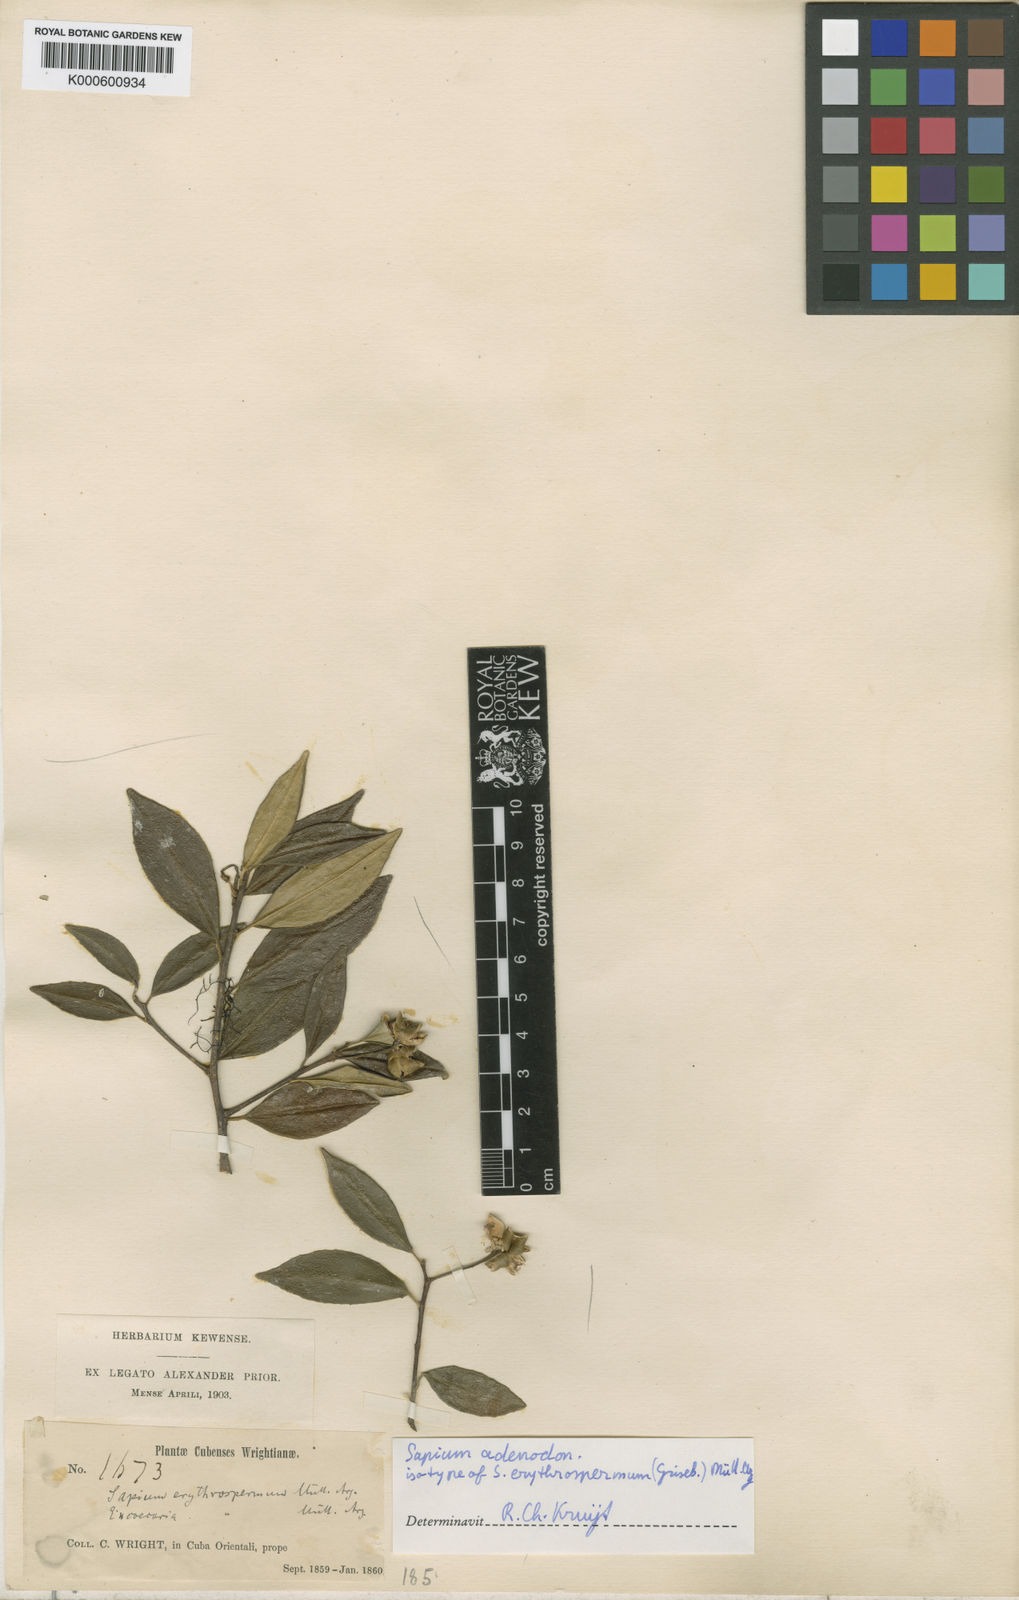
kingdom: Plantae
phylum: Tracheophyta
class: Magnoliopsida
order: Malpighiales
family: Euphorbiaceae
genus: Sapium
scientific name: Sapium
